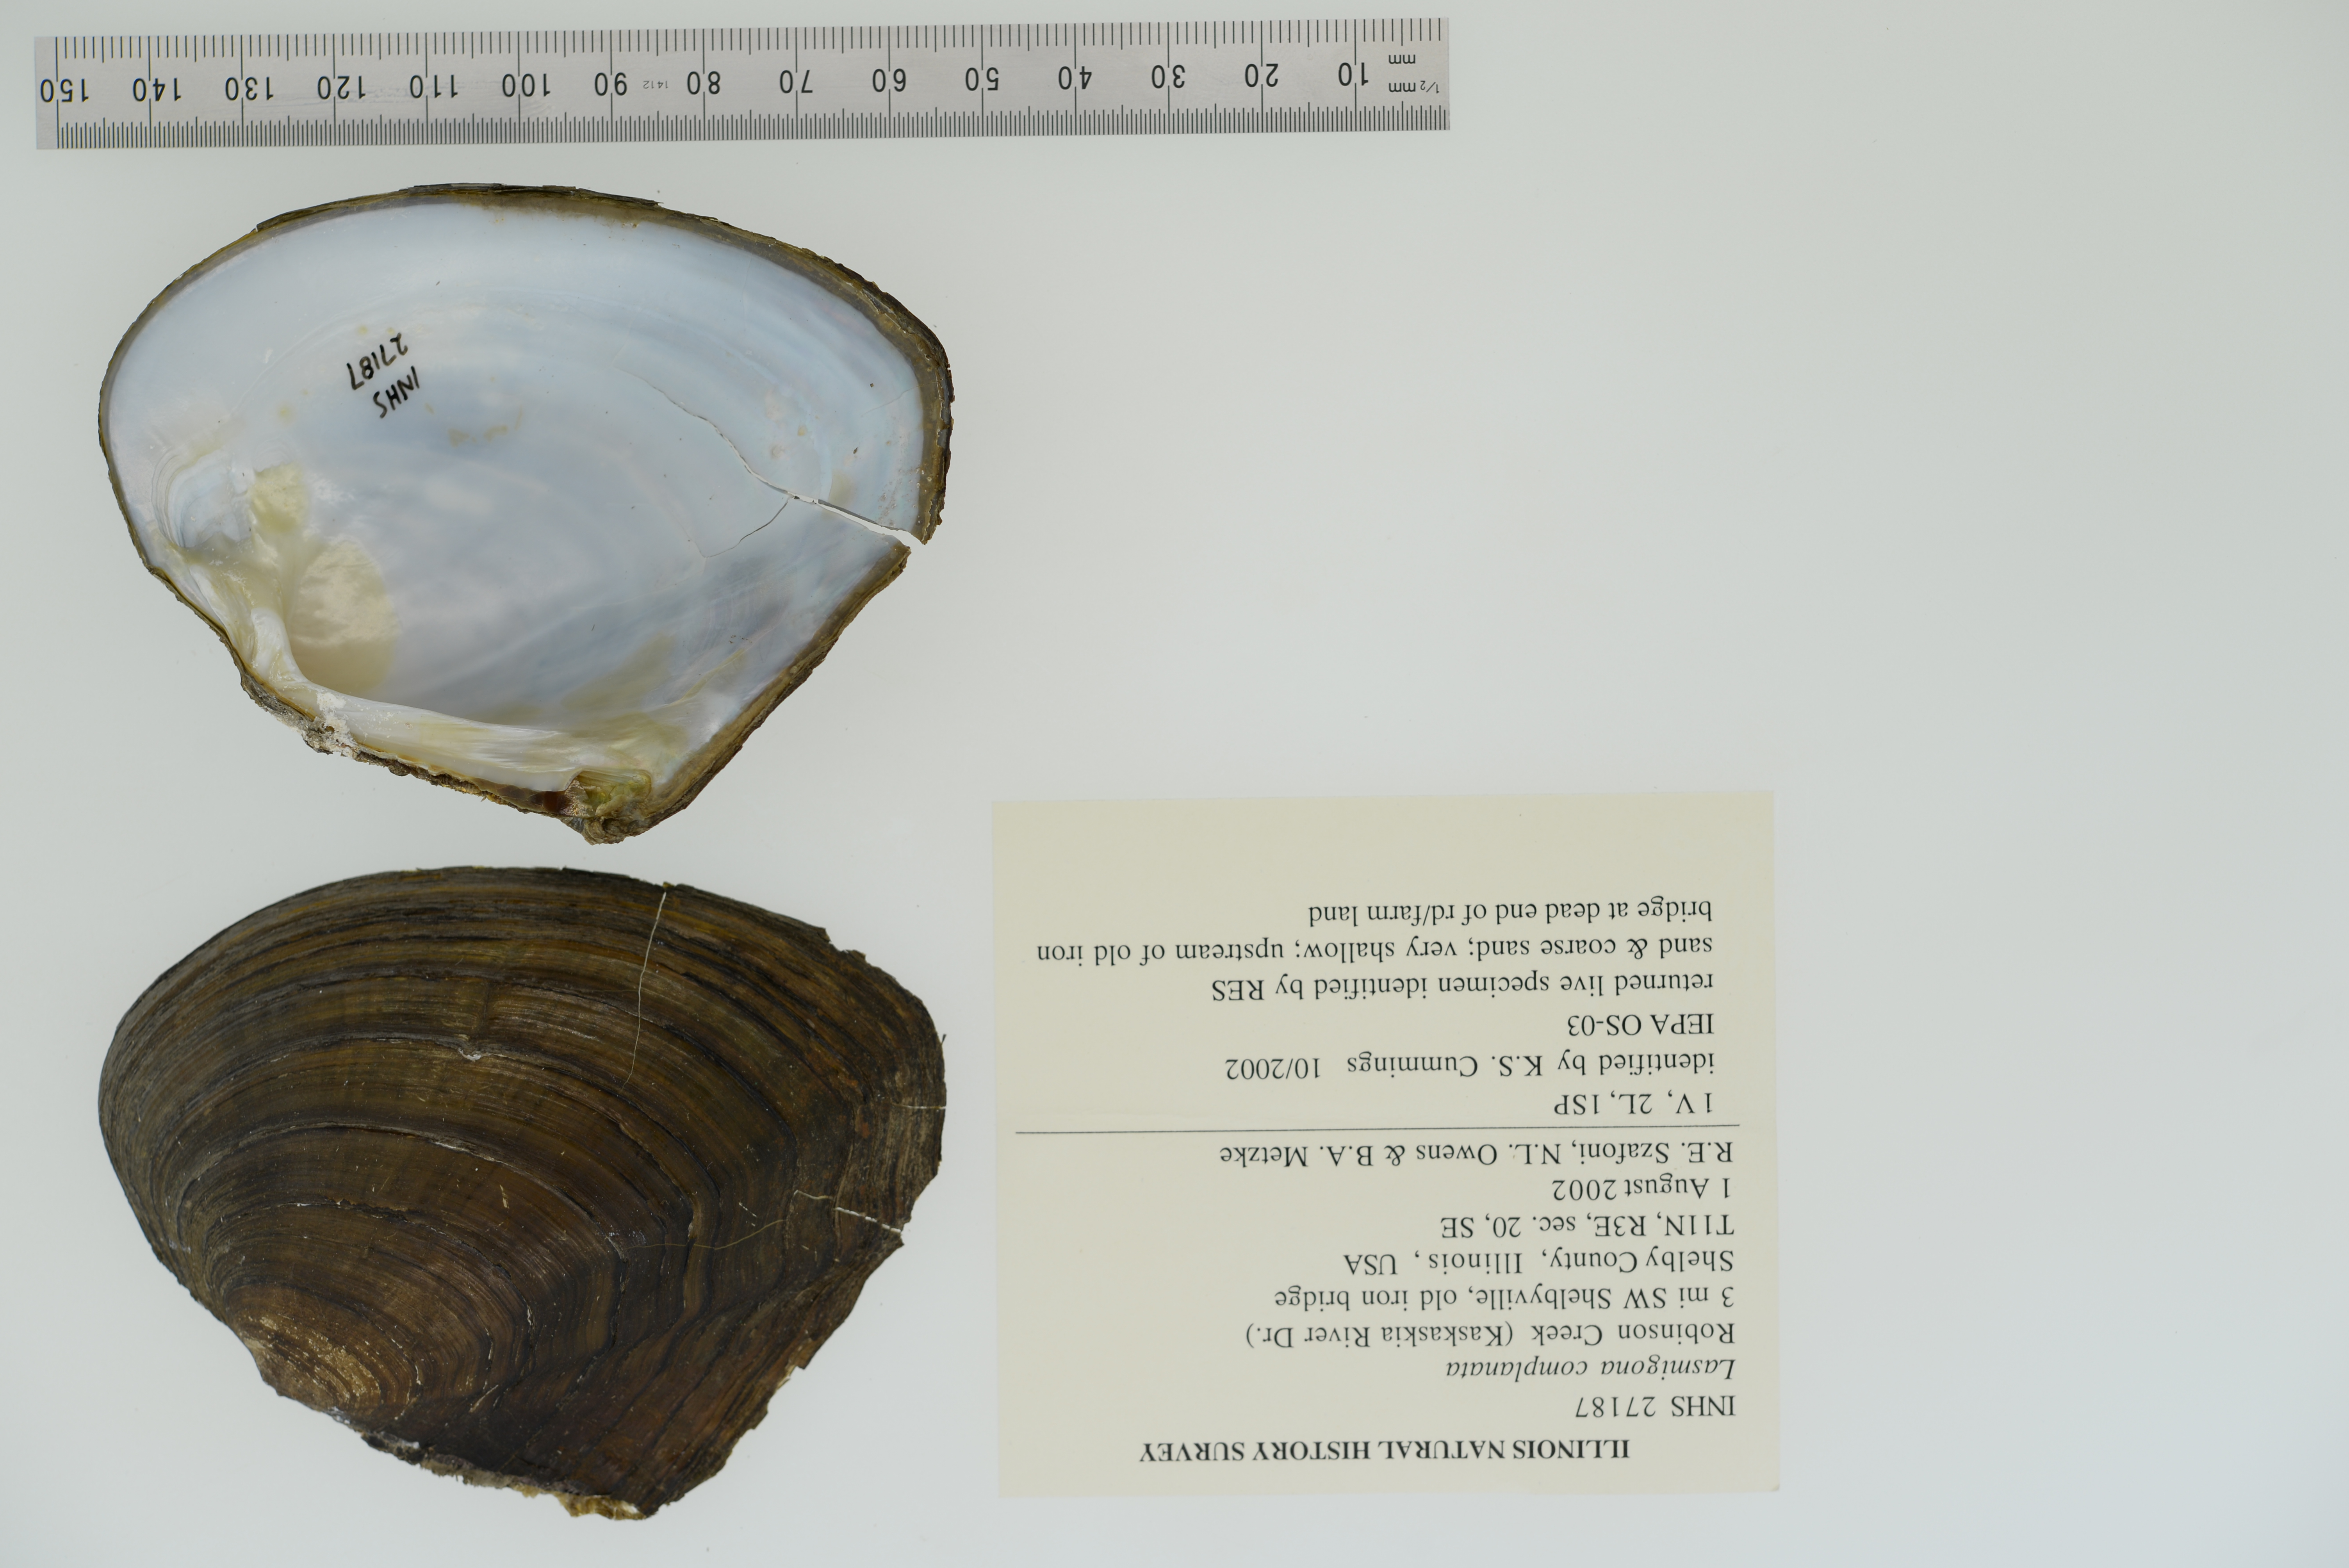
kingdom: Animalia
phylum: Mollusca
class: Bivalvia
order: Unionida
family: Unionidae
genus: Lasmigona
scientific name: Lasmigona complanata
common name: White heelsplitter
